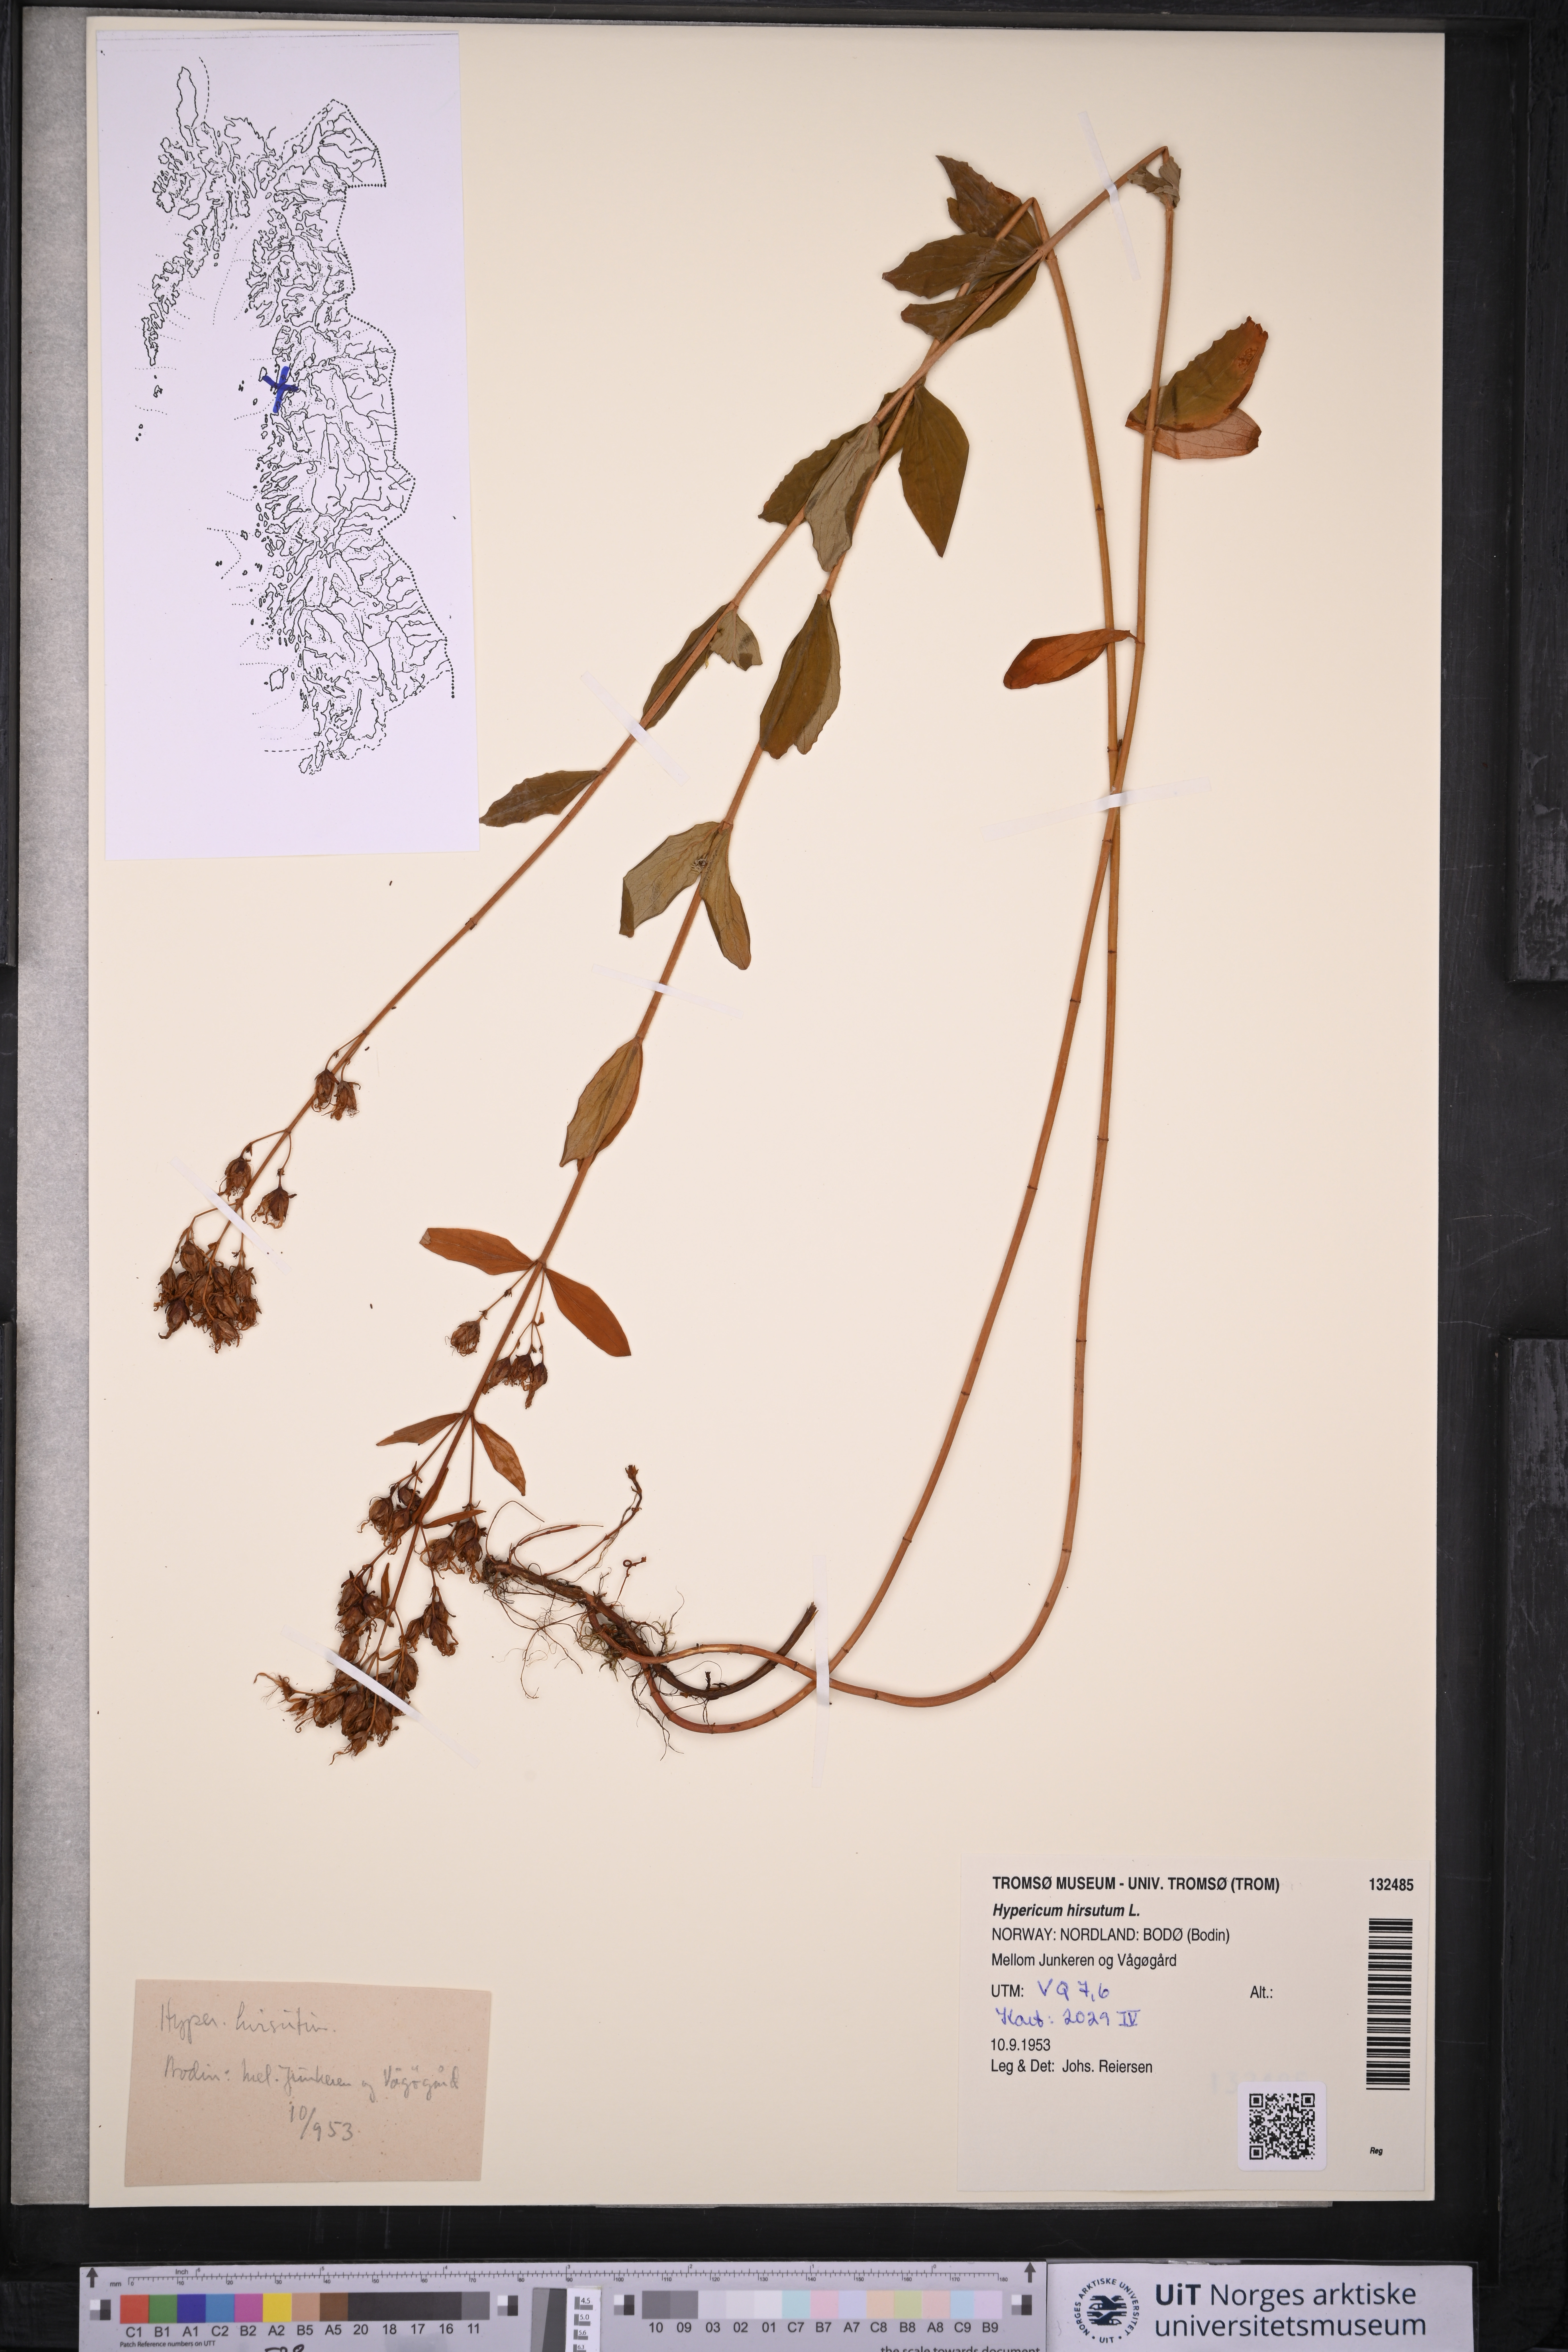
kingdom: Plantae
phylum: Tracheophyta
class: Magnoliopsida
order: Malpighiales
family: Hypericaceae
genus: Hypericum
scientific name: Hypericum hirsutum
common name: Hairy st. john's-wort
